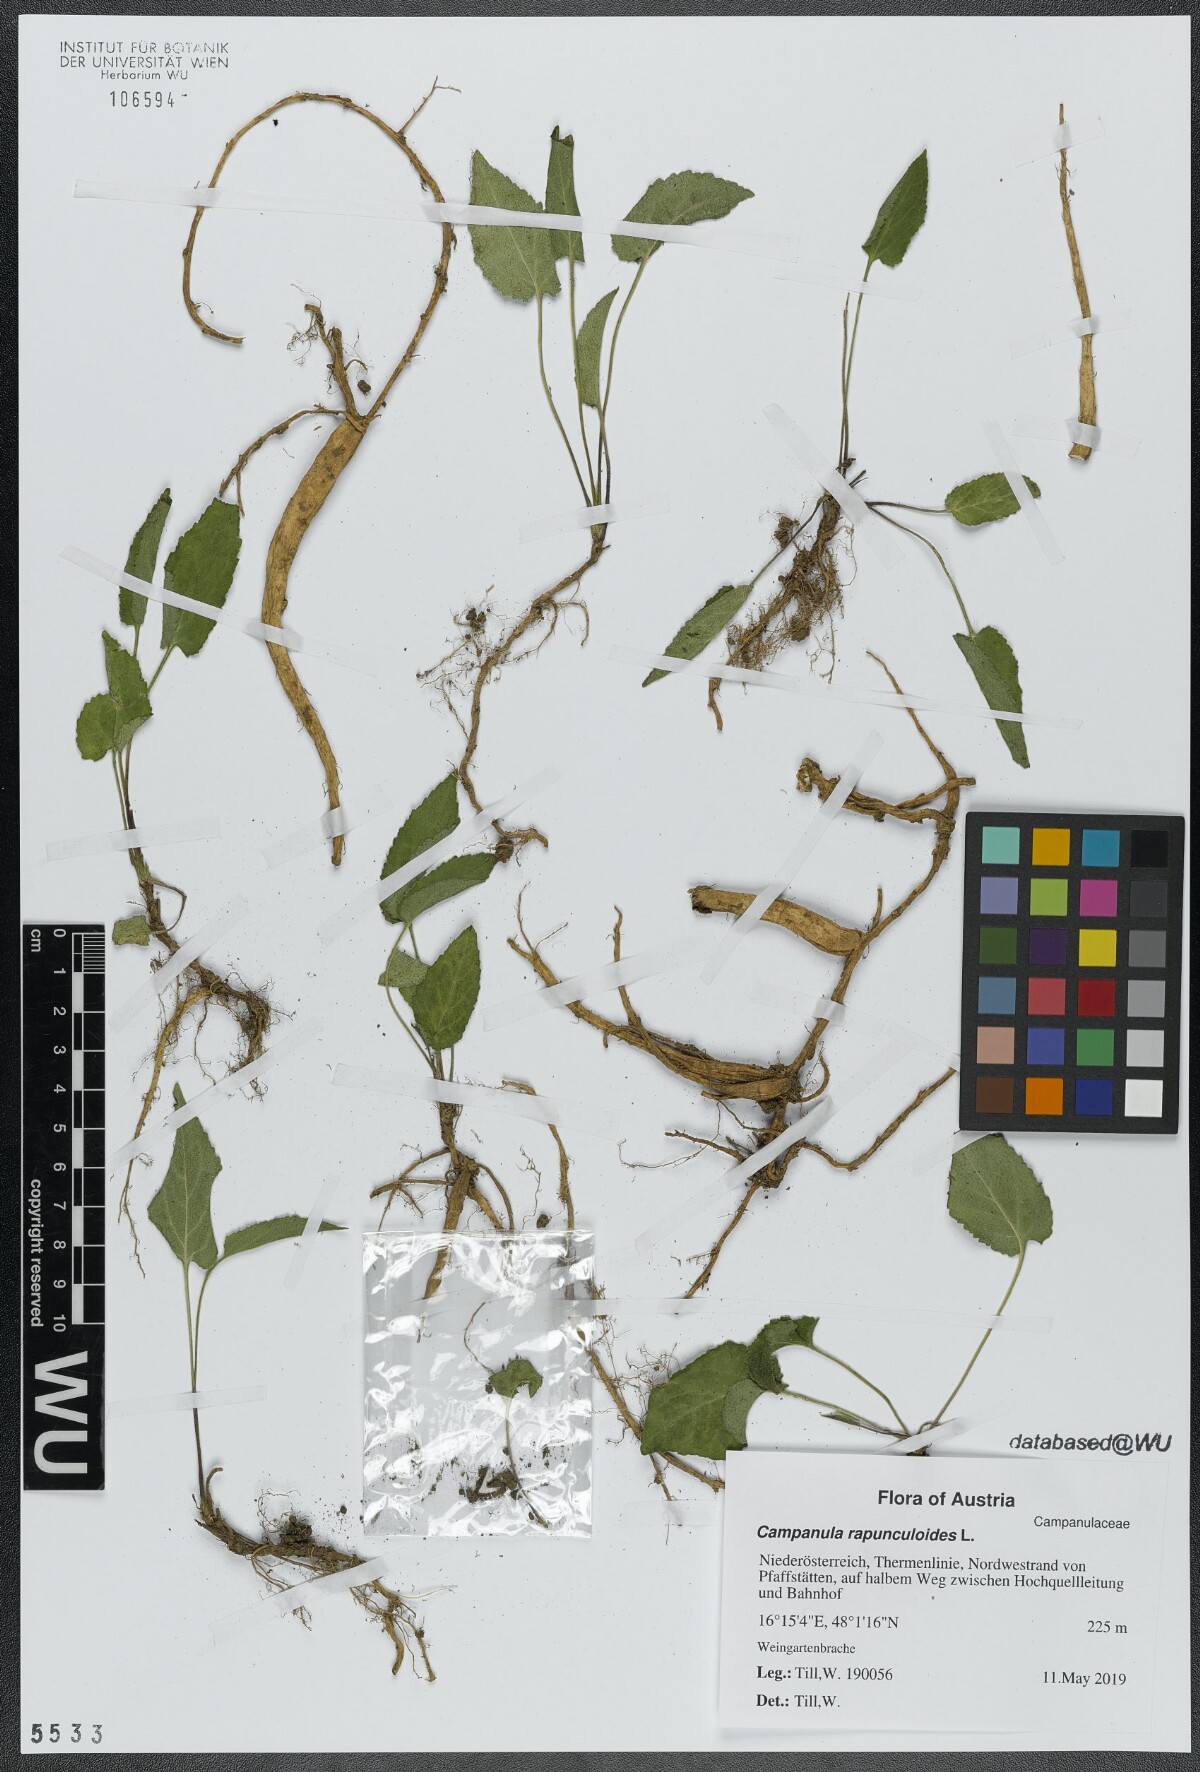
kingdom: Plantae
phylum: Tracheophyta
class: Magnoliopsida
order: Asterales
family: Campanulaceae
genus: Campanula
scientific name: Campanula rapunculoides
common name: Creeping bellflower
